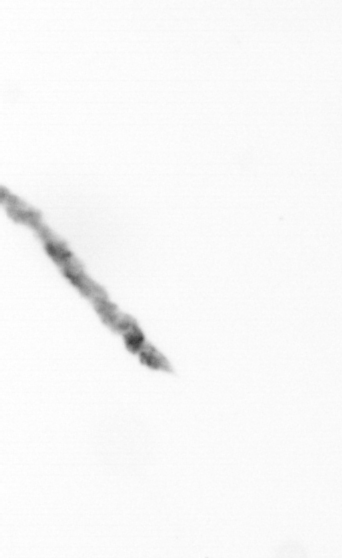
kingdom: Chromista
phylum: Ochrophyta
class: Bacillariophyceae
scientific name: Bacillariophyceae
